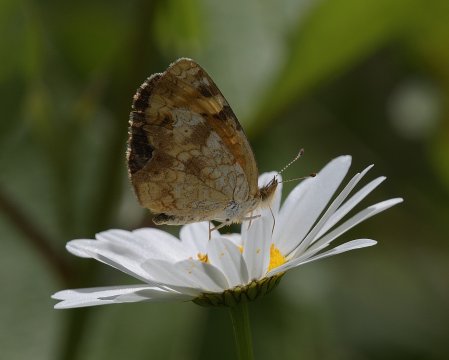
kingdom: Animalia
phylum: Arthropoda
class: Insecta
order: Lepidoptera
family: Nymphalidae
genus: Phyciodes
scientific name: Phyciodes tharos
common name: Northern Crescent
